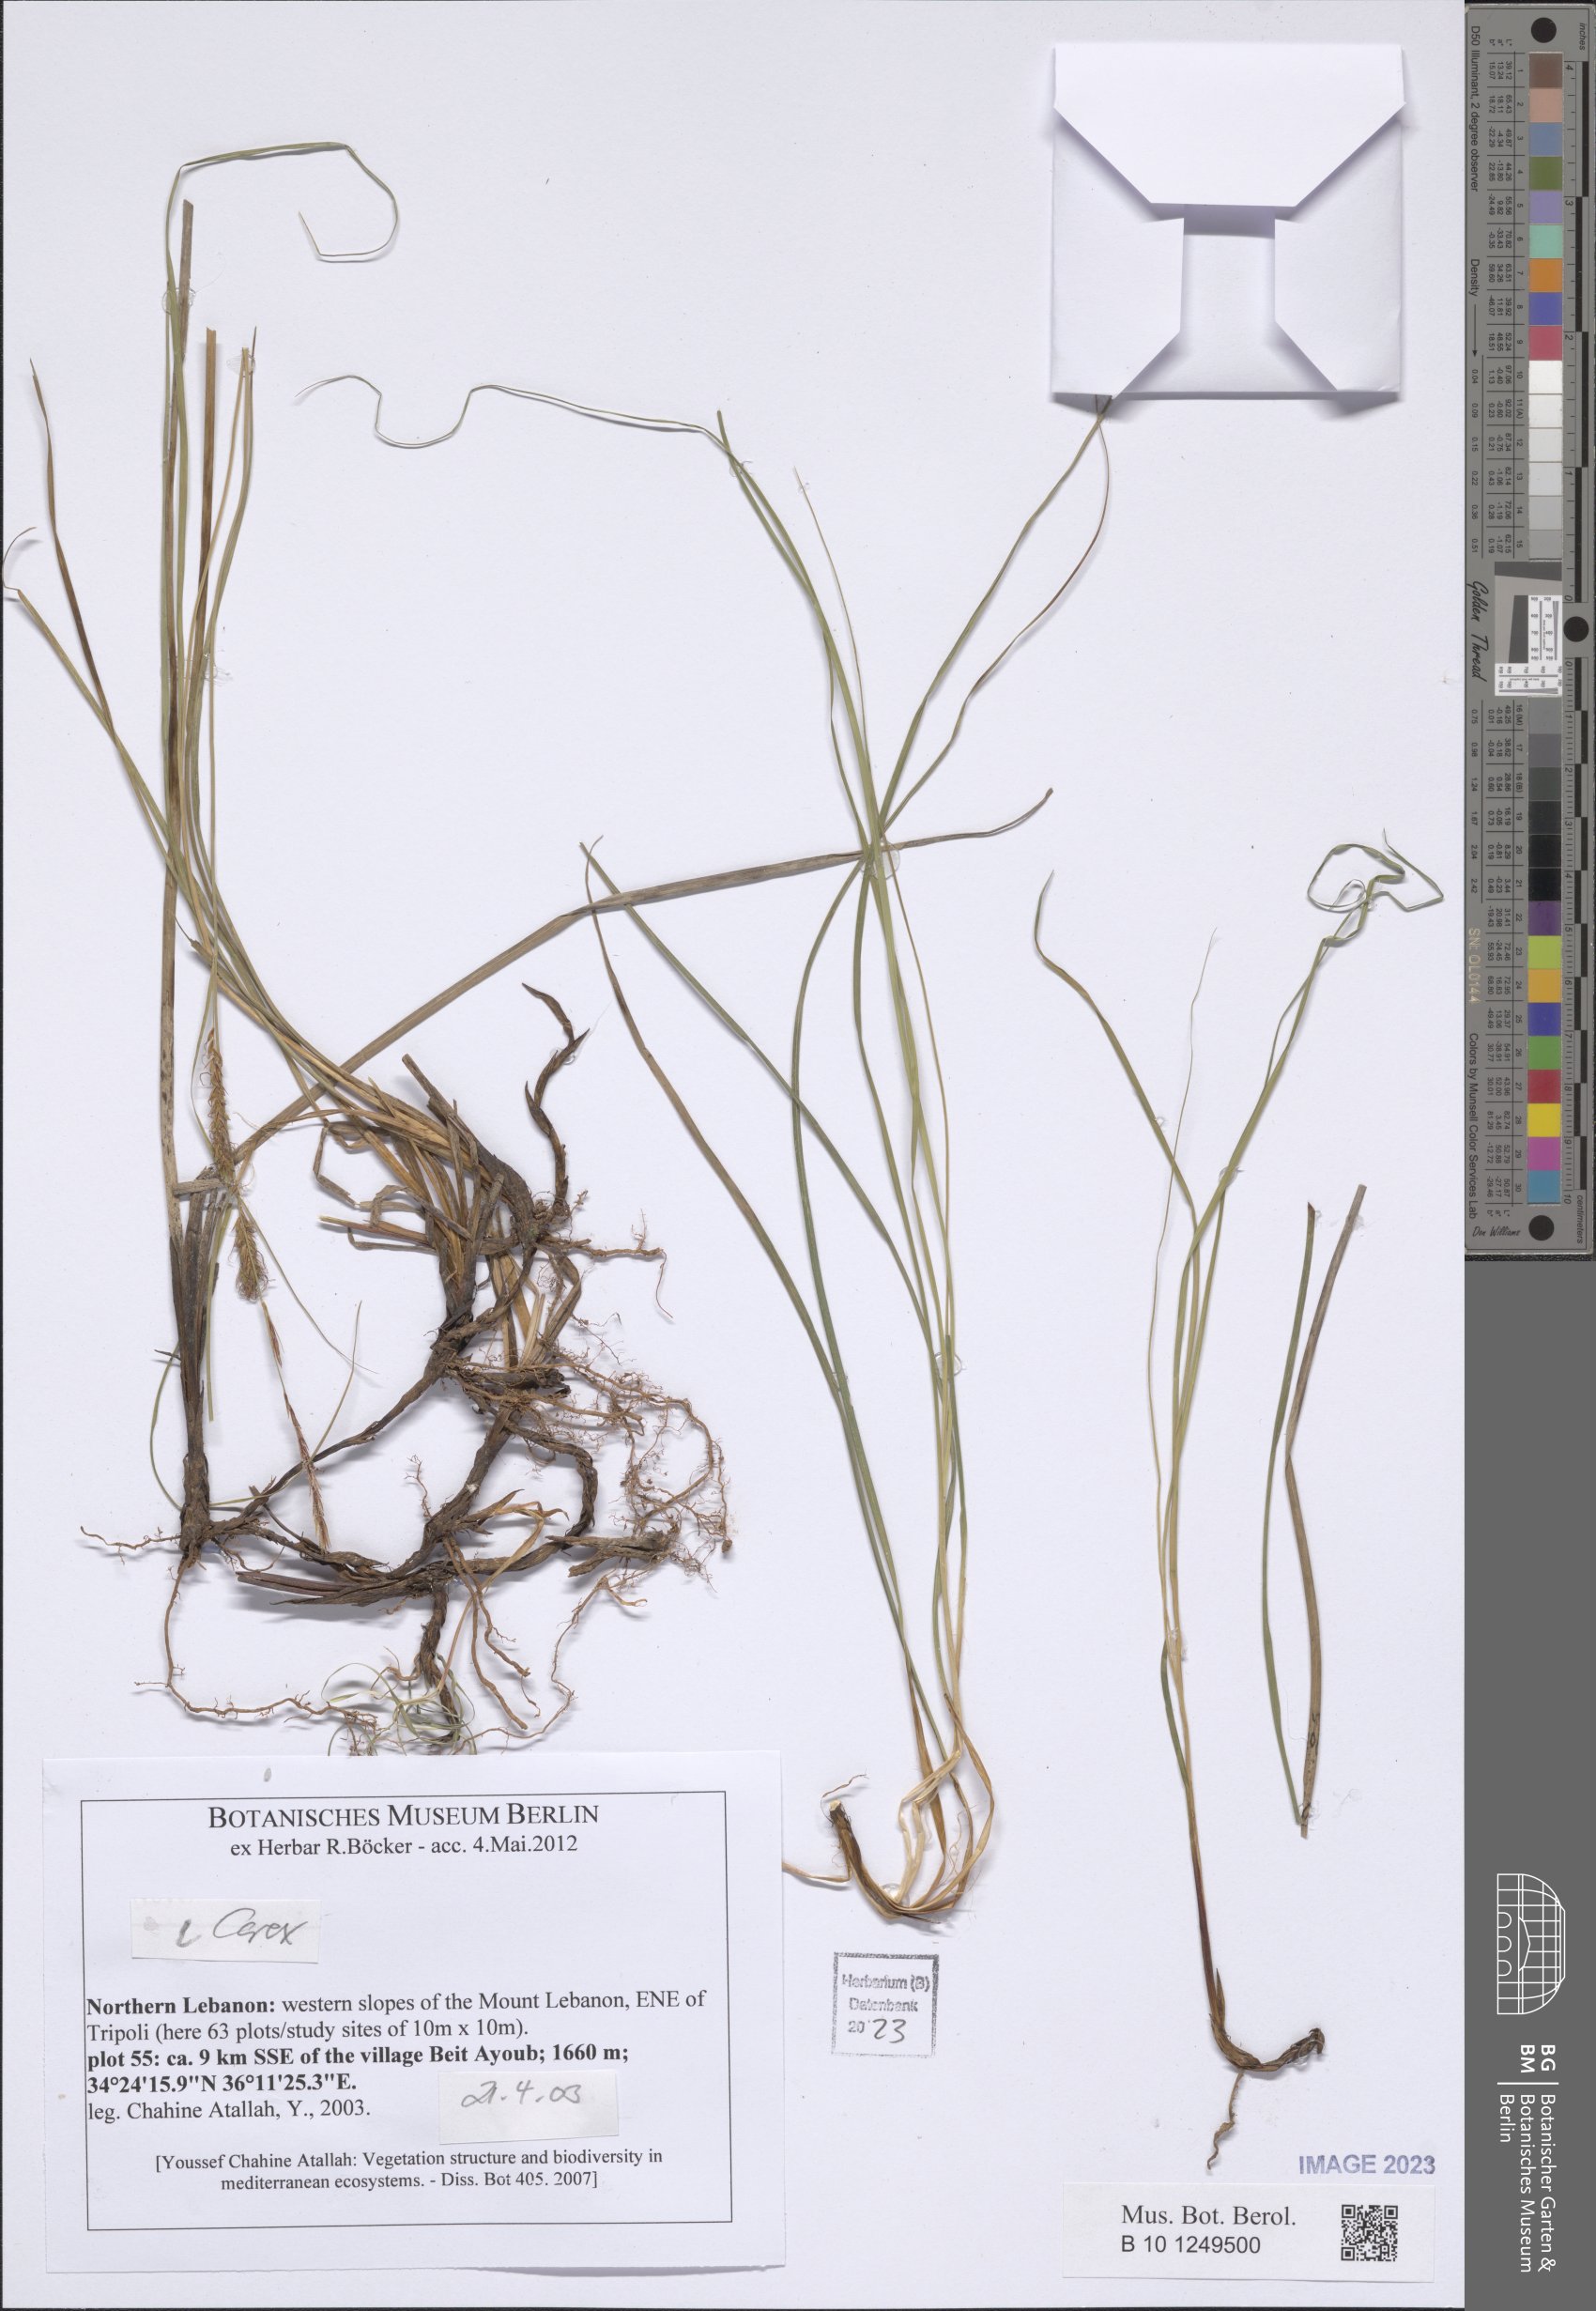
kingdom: Plantae
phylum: Tracheophyta
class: Liliopsida
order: Poales
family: Cyperaceae
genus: Carex
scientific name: Carex
